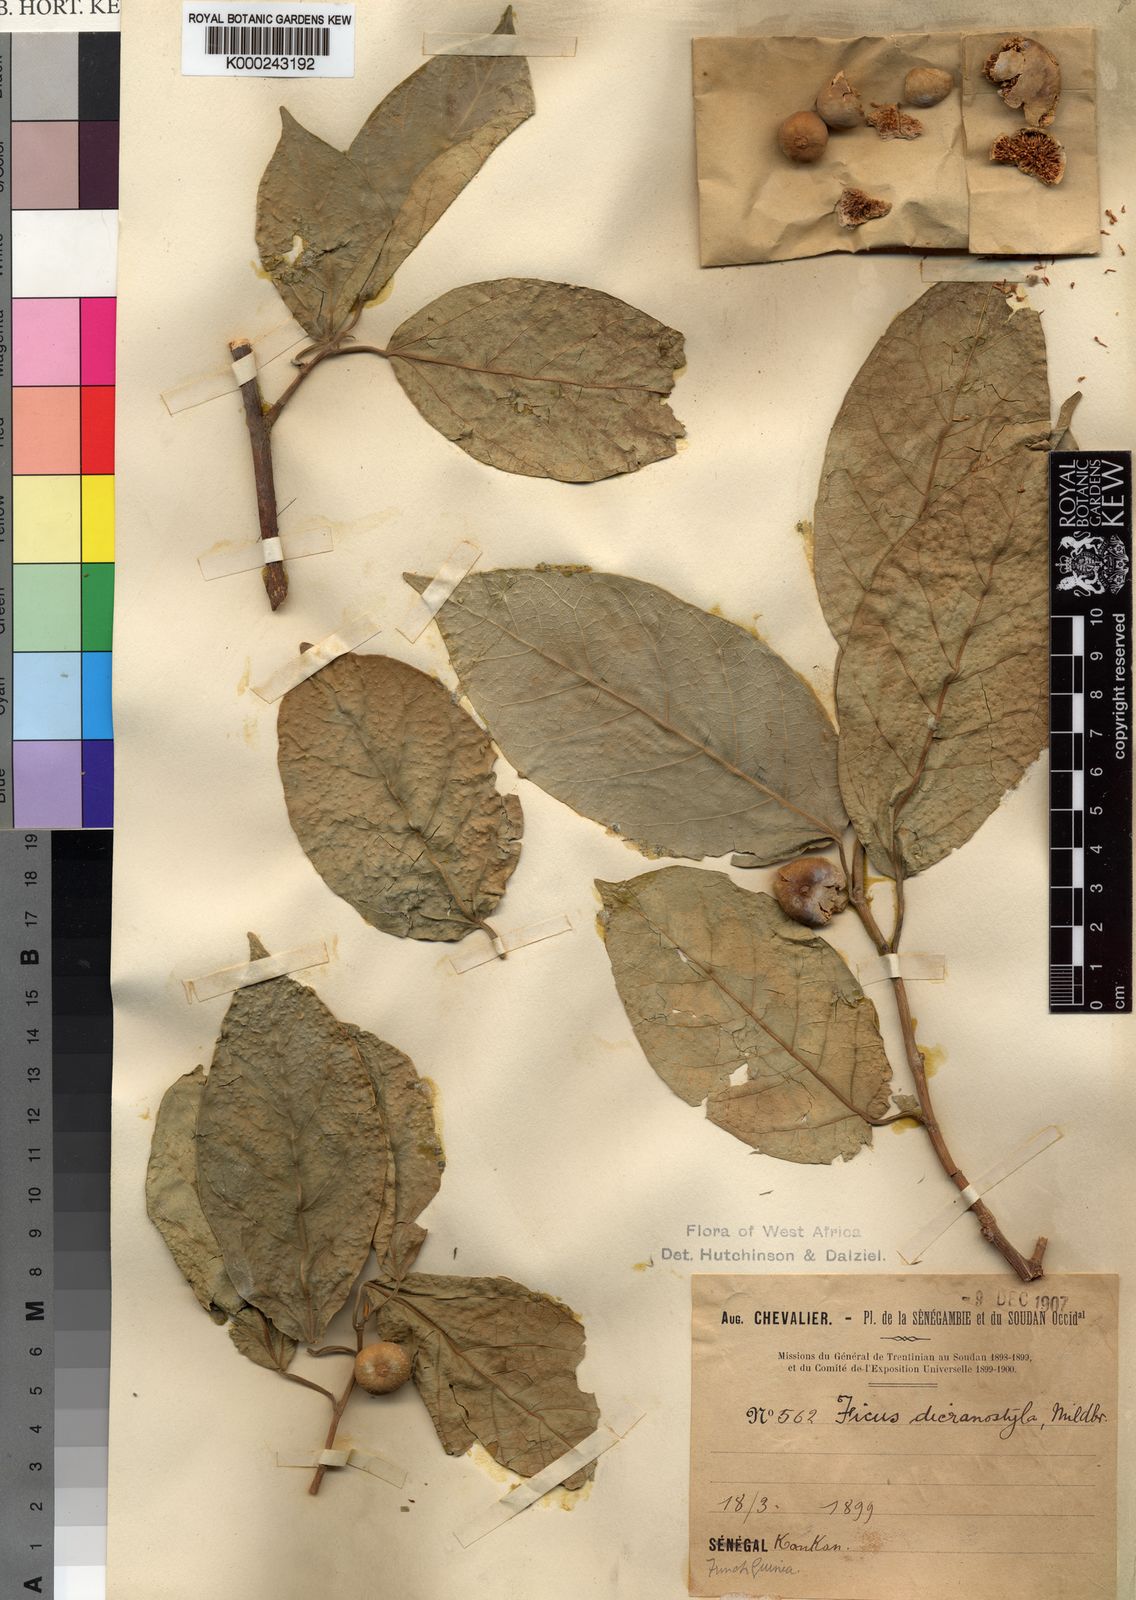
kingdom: Plantae
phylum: Tracheophyta
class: Magnoliopsida
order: Rosales
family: Moraceae
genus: Ficus
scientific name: Ficus dicranostyla
